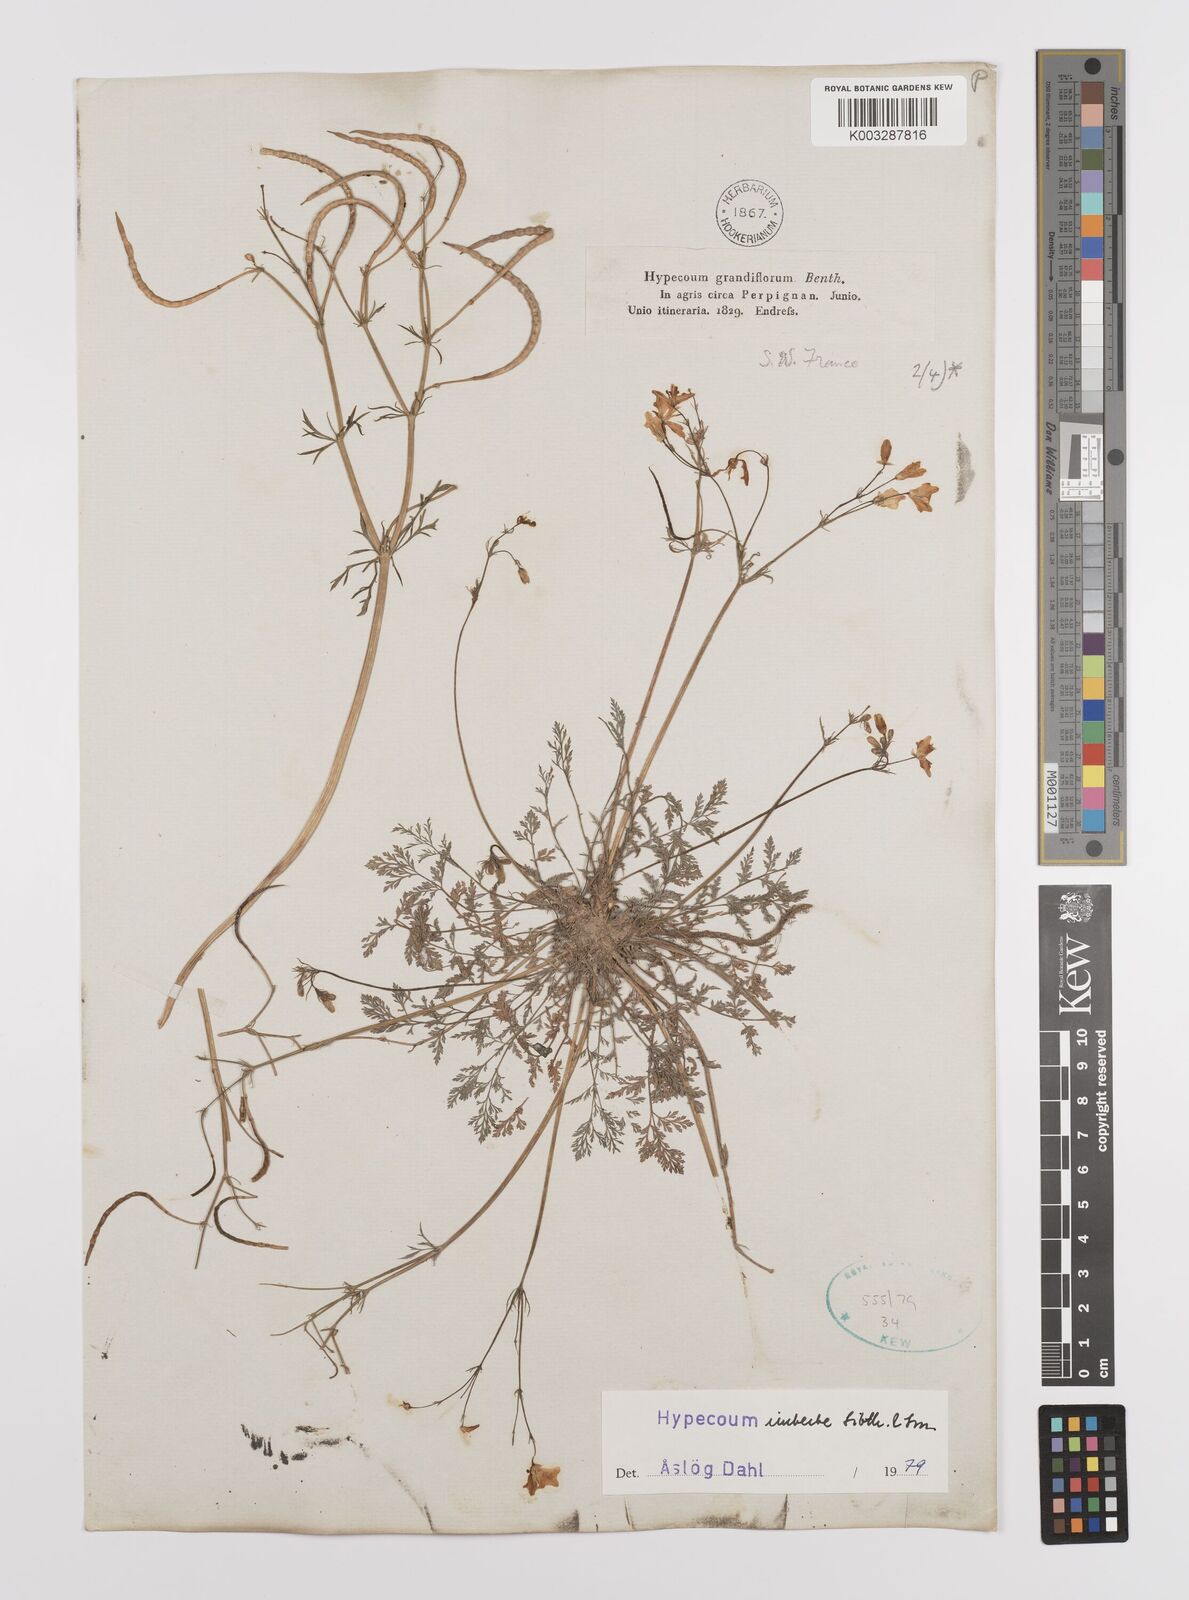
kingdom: Plantae
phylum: Tracheophyta
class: Magnoliopsida
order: Ranunculales
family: Papaveraceae
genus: Hypecoum
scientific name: Hypecoum imberbe
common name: Sicklefruit hypecoum
